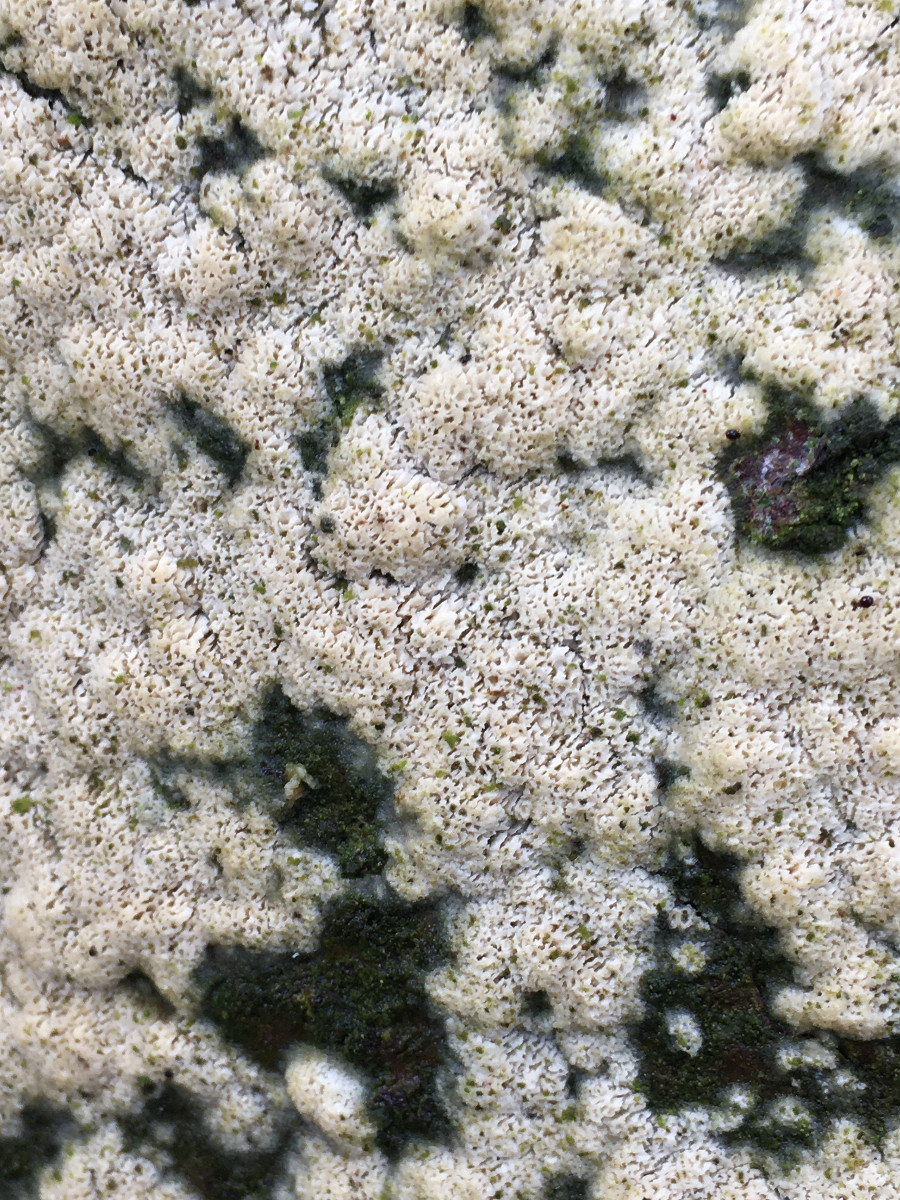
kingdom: Fungi
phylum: Basidiomycota
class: Agaricomycetes
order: Polyporales
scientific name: Polyporales
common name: poresvampordenen
